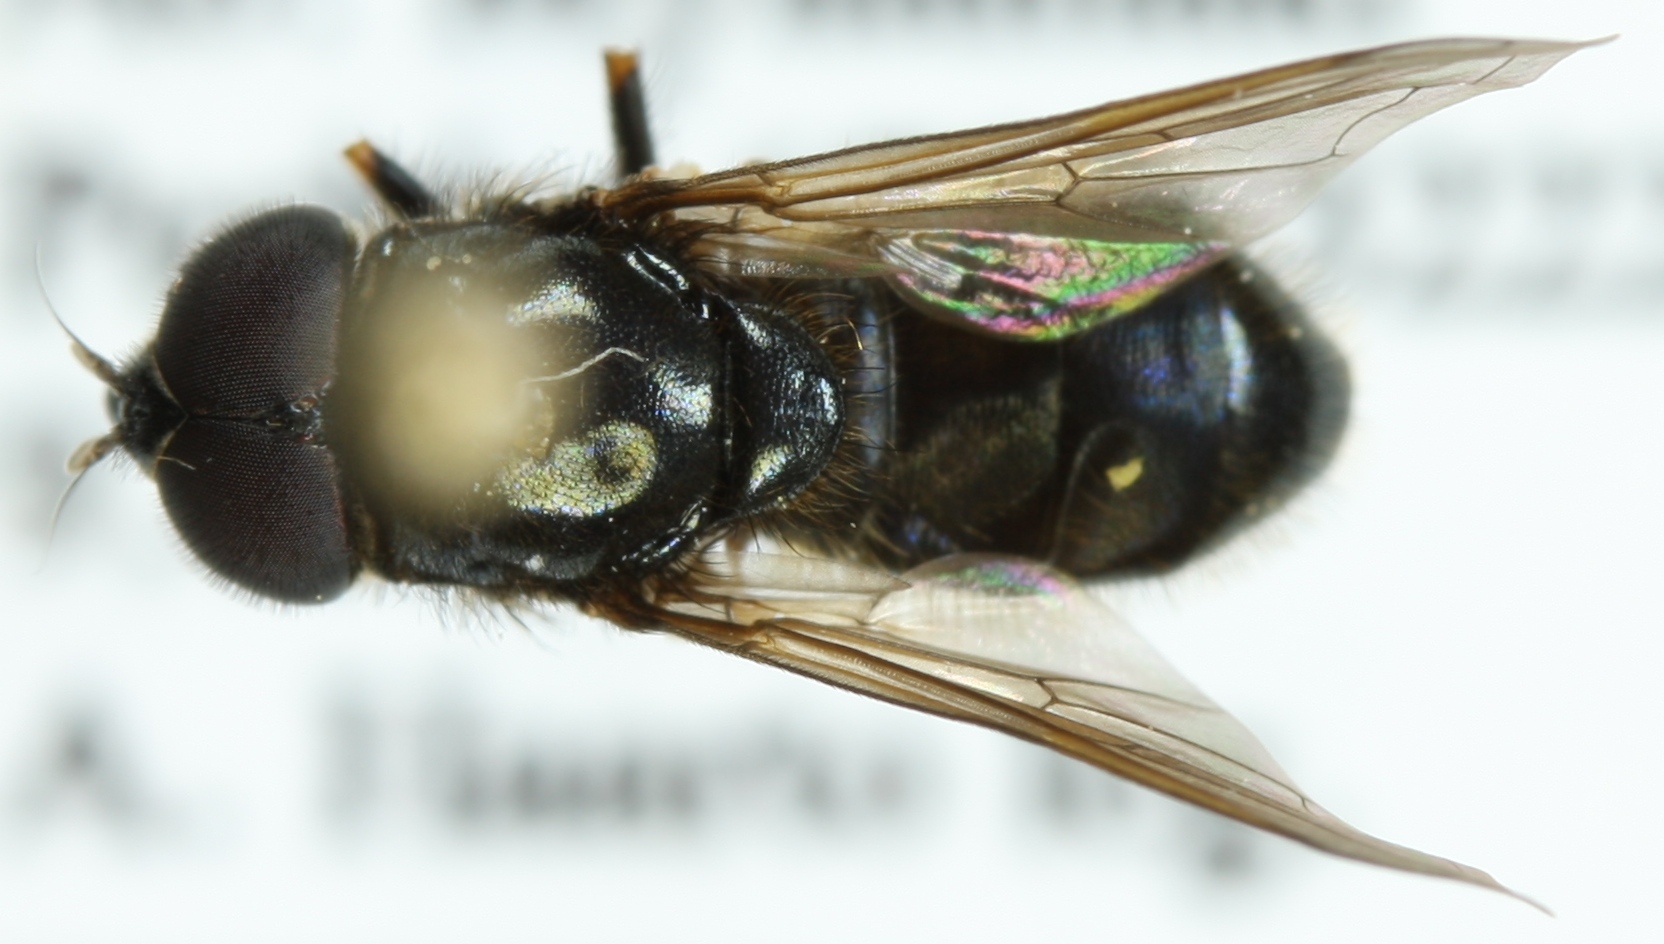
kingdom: Animalia
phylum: Arthropoda
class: Insecta
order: Diptera
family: Syrphidae
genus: Cheilosia
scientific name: Cheilosia vernalis
